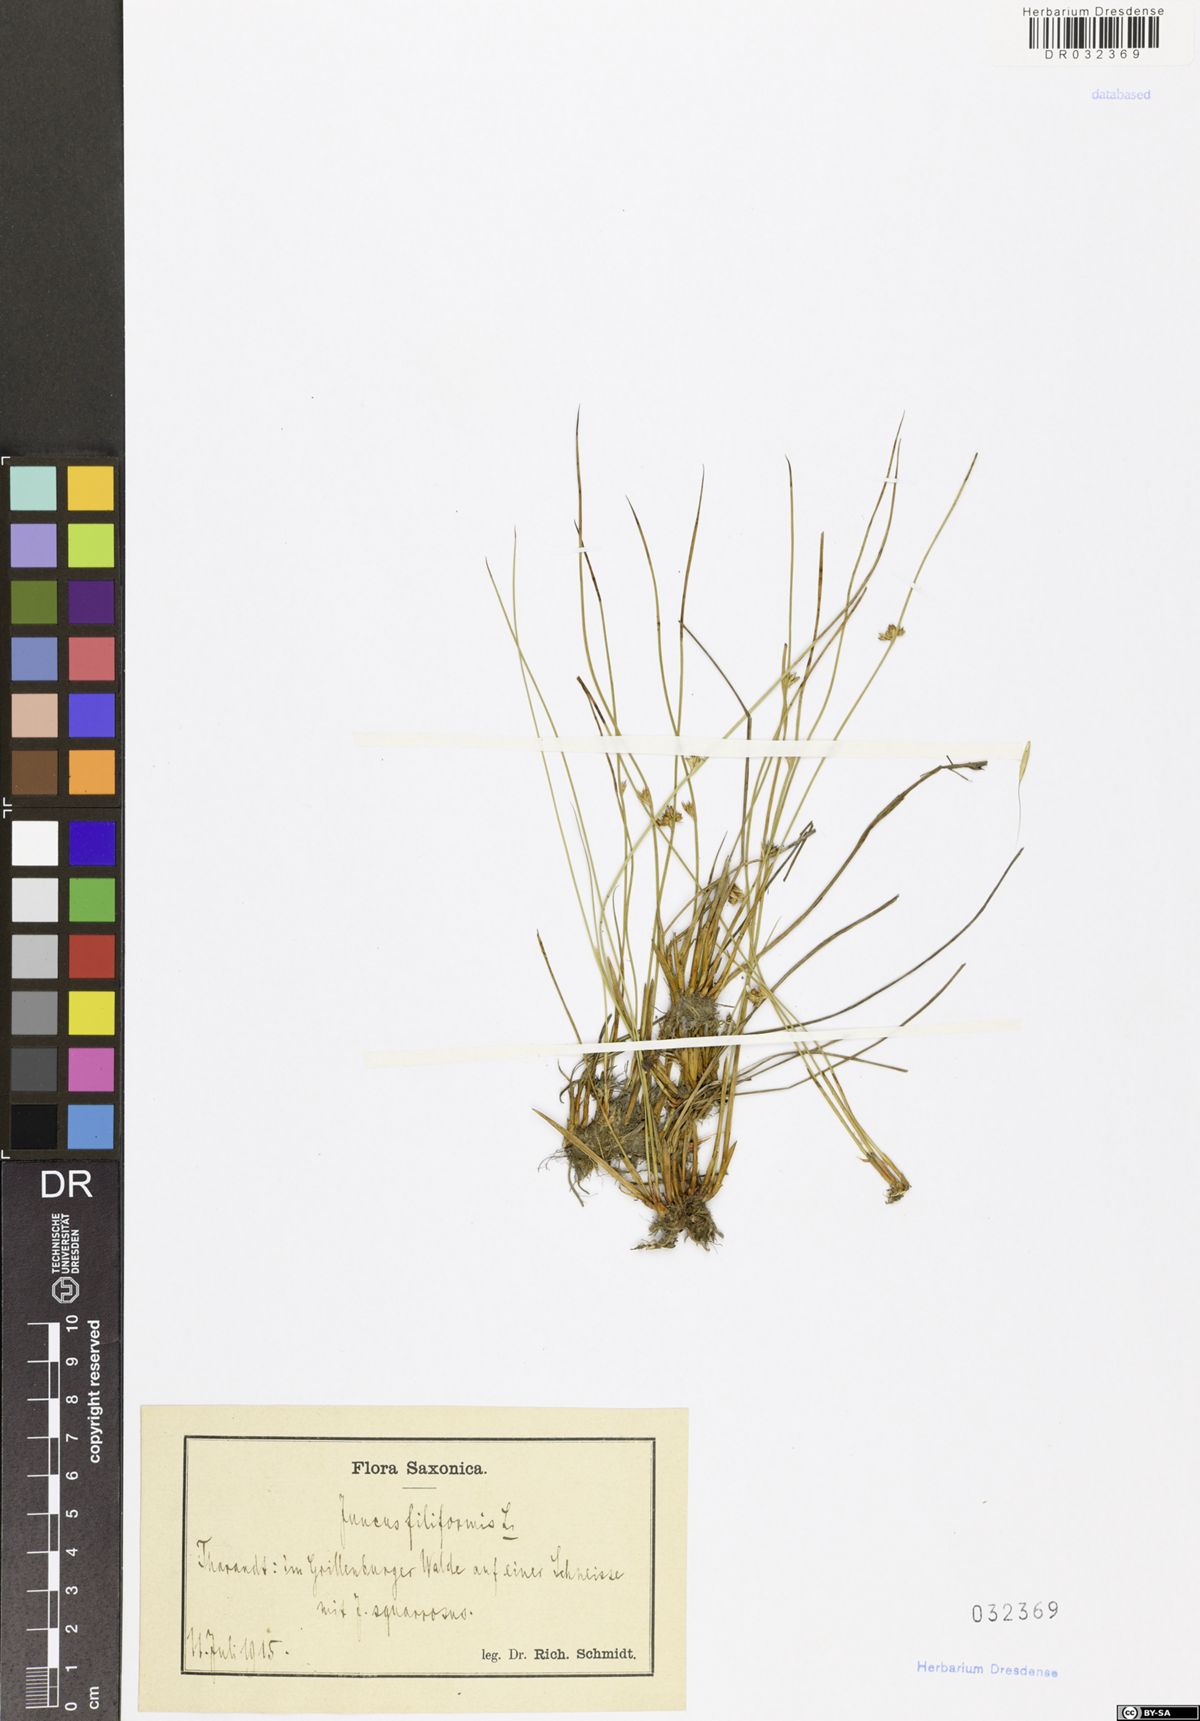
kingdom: Plantae
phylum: Tracheophyta
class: Liliopsida
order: Poales
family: Juncaceae
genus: Juncus
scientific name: Juncus inflexus
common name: Hard rush
